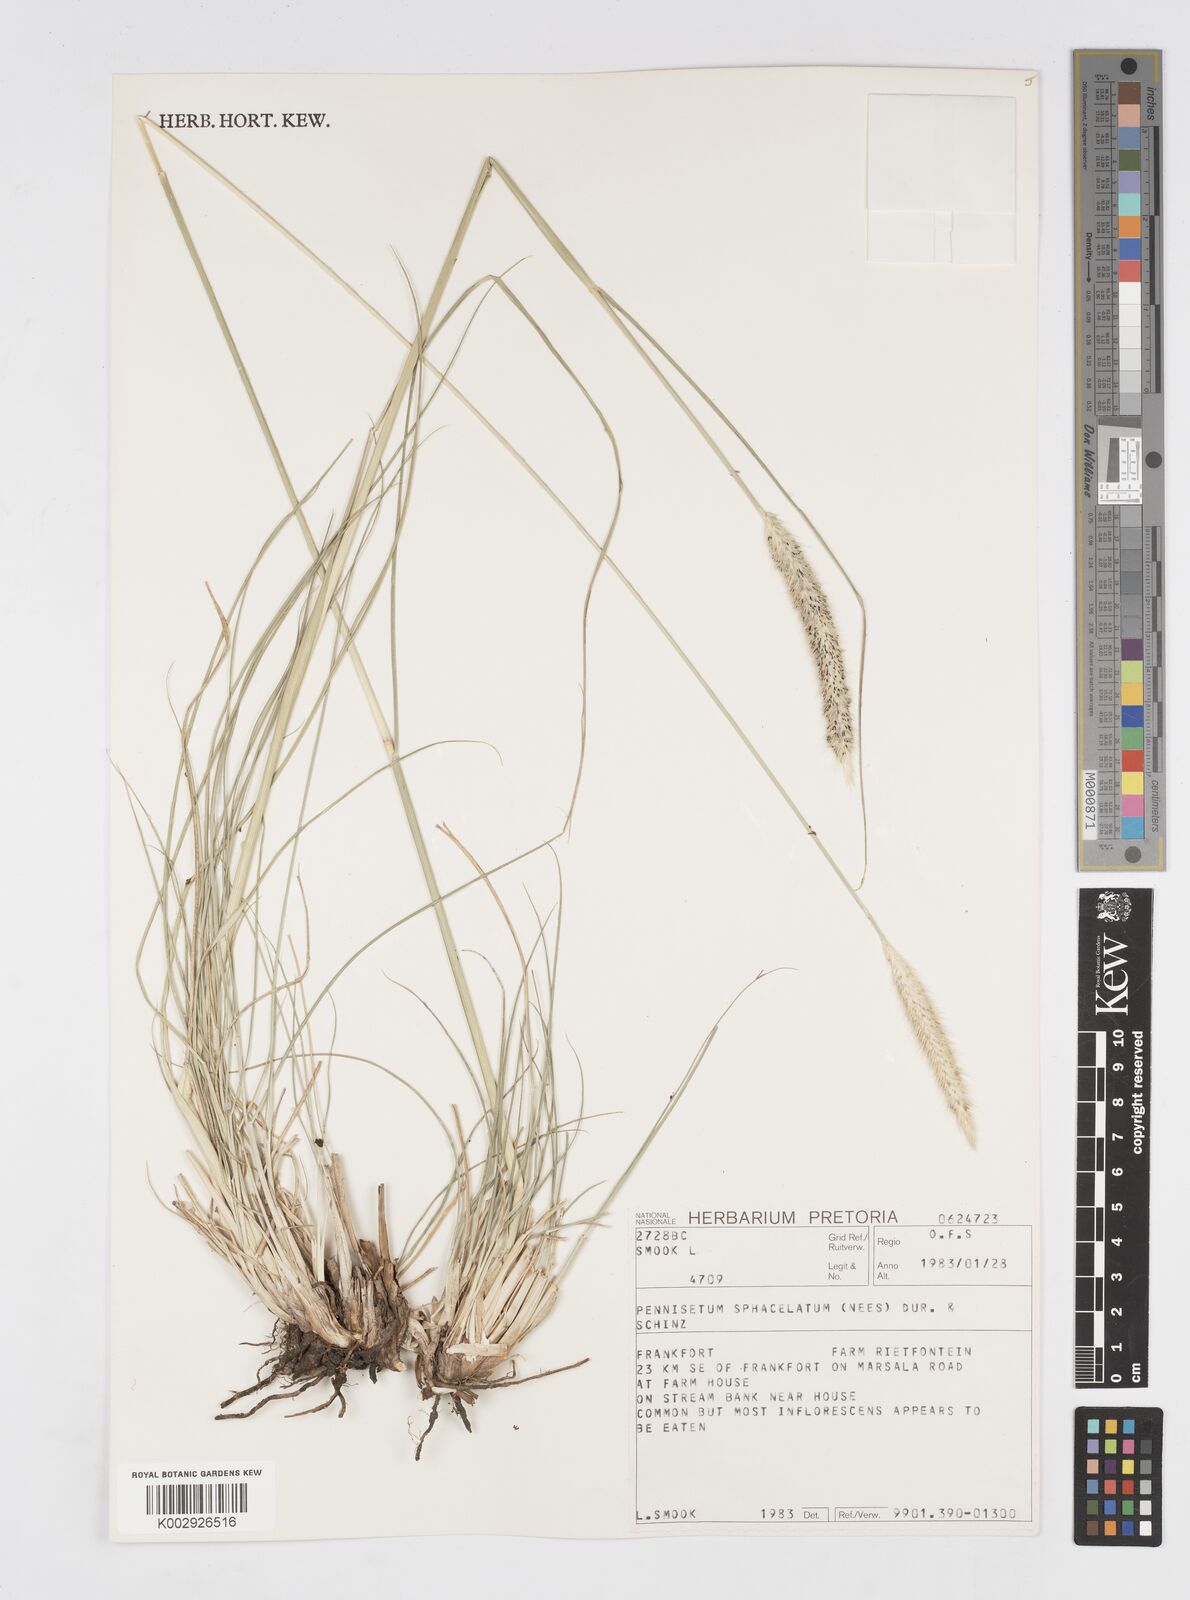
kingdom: Plantae
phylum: Tracheophyta
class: Liliopsida
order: Poales
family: Poaceae
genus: Cenchrus
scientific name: Cenchrus sphacelatus
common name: Bulgras
